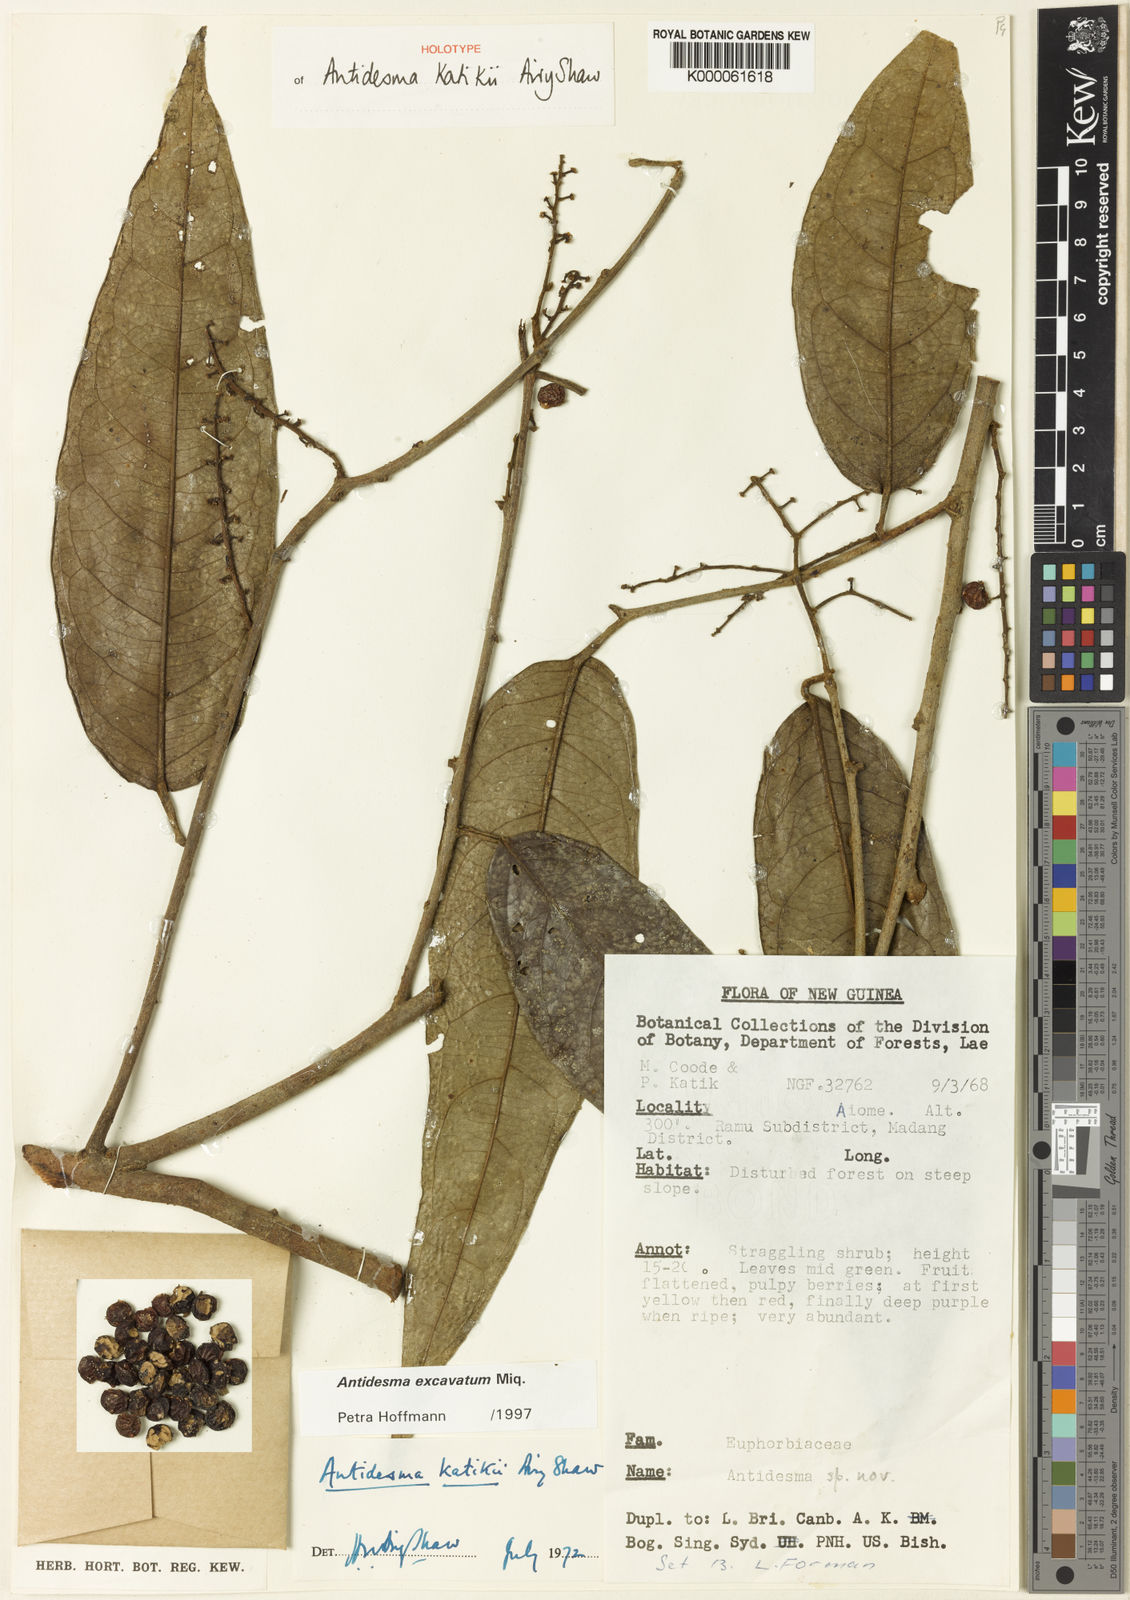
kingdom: Plantae
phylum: Tracheophyta
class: Magnoliopsida
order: Malpighiales
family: Phyllanthaceae
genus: Antidesma
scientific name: Antidesma excavatum
